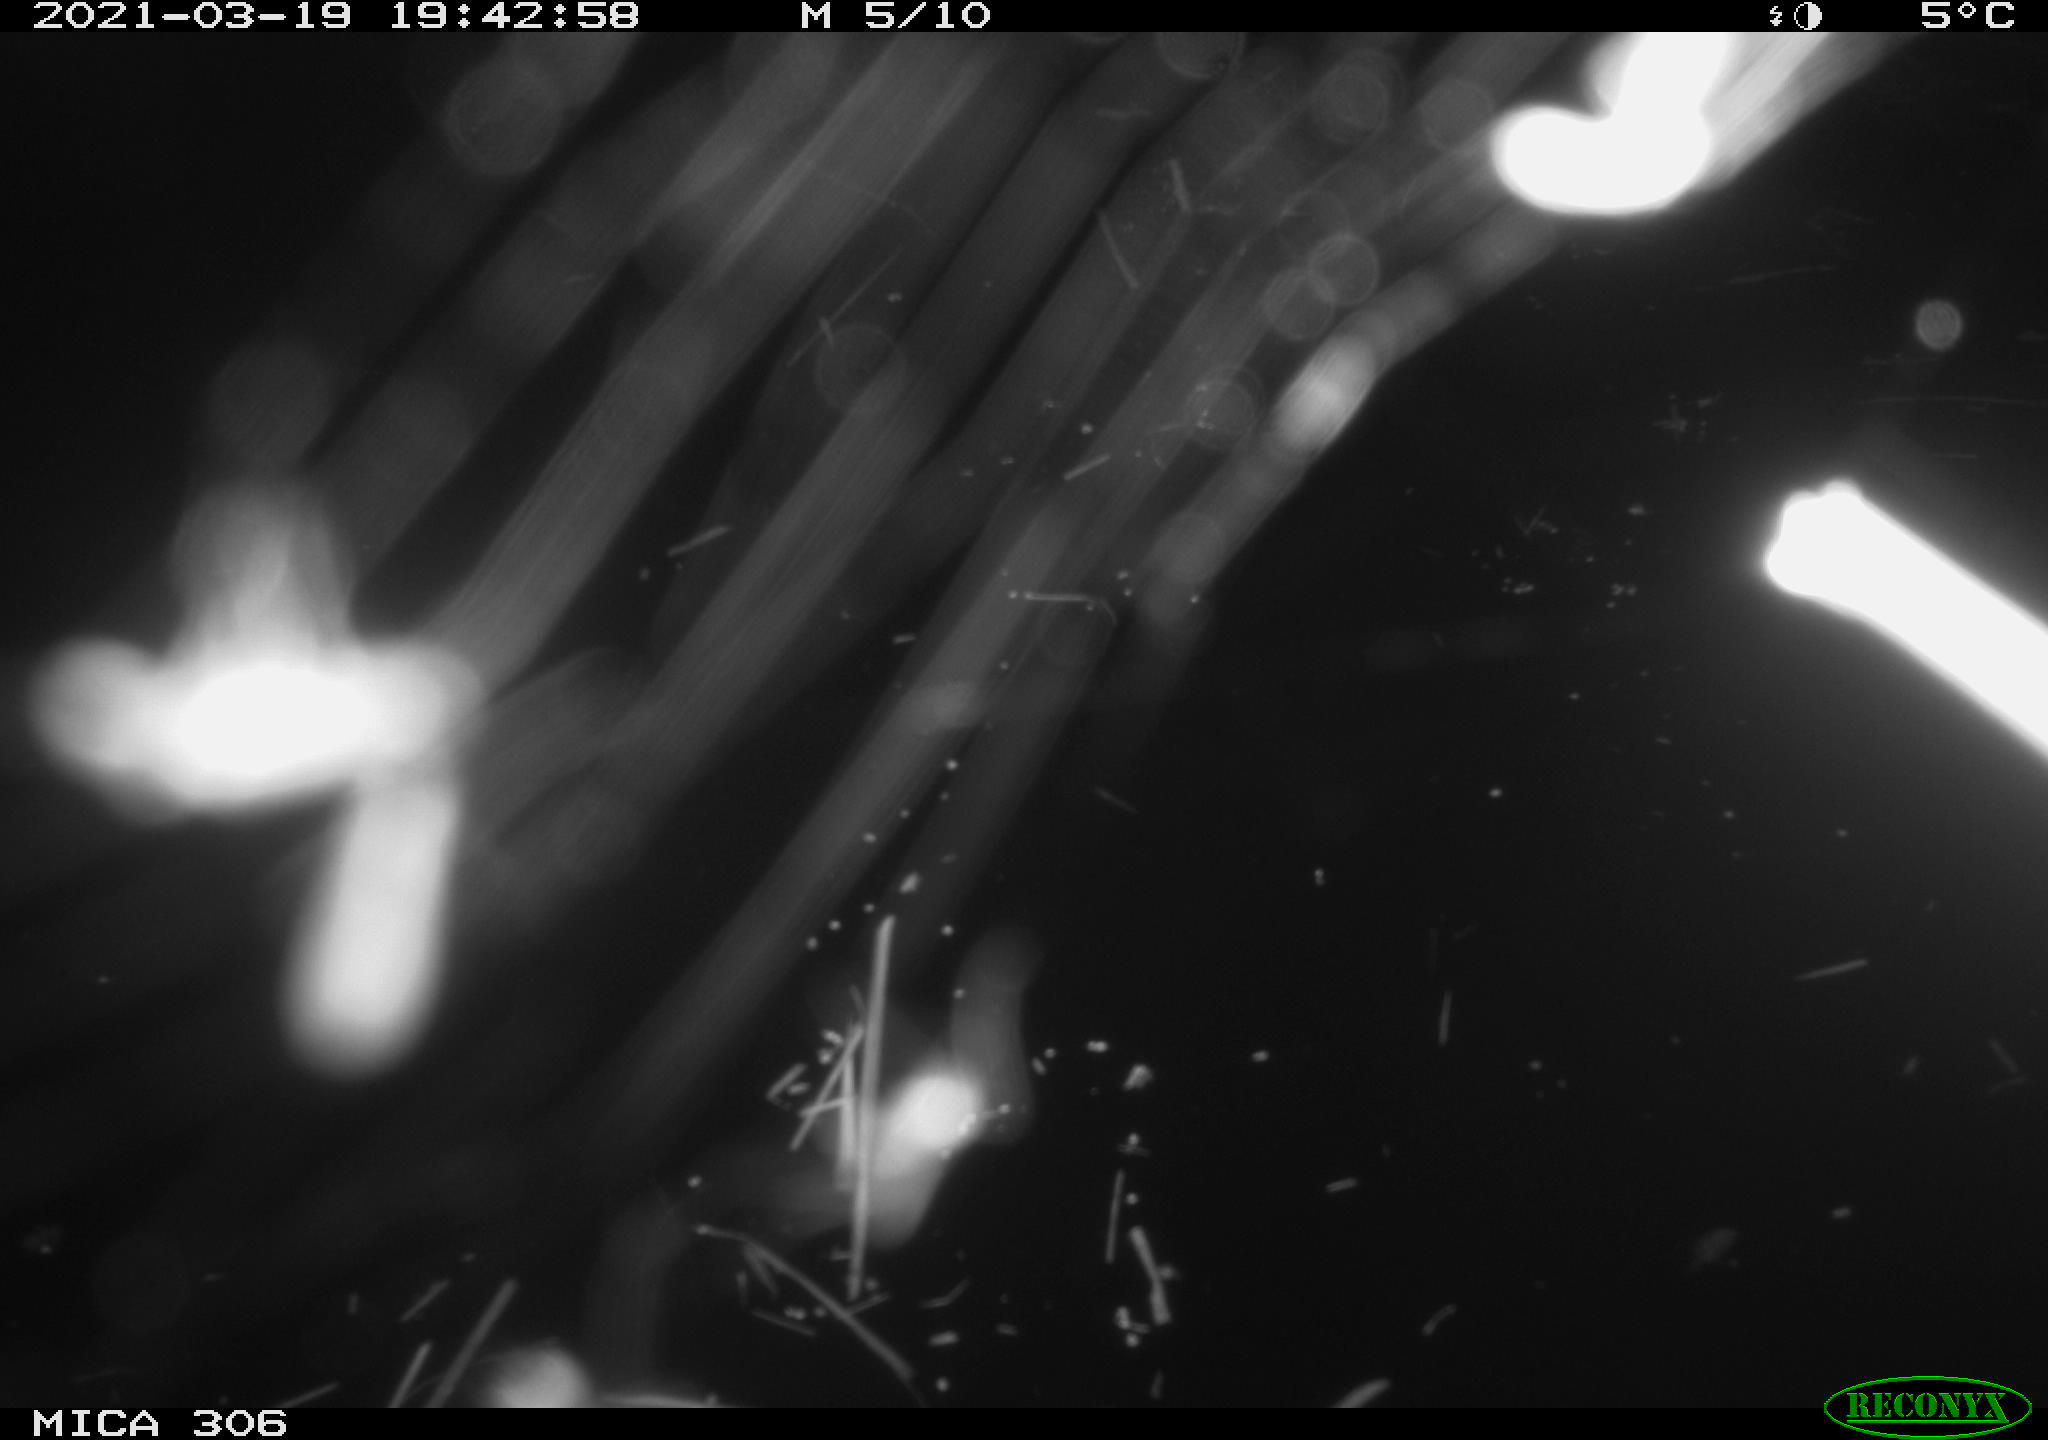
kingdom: Animalia
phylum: Chordata
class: Aves
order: Gruiformes
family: Rallidae
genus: Gallinula
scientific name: Gallinula chloropus
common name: Common moorhen
